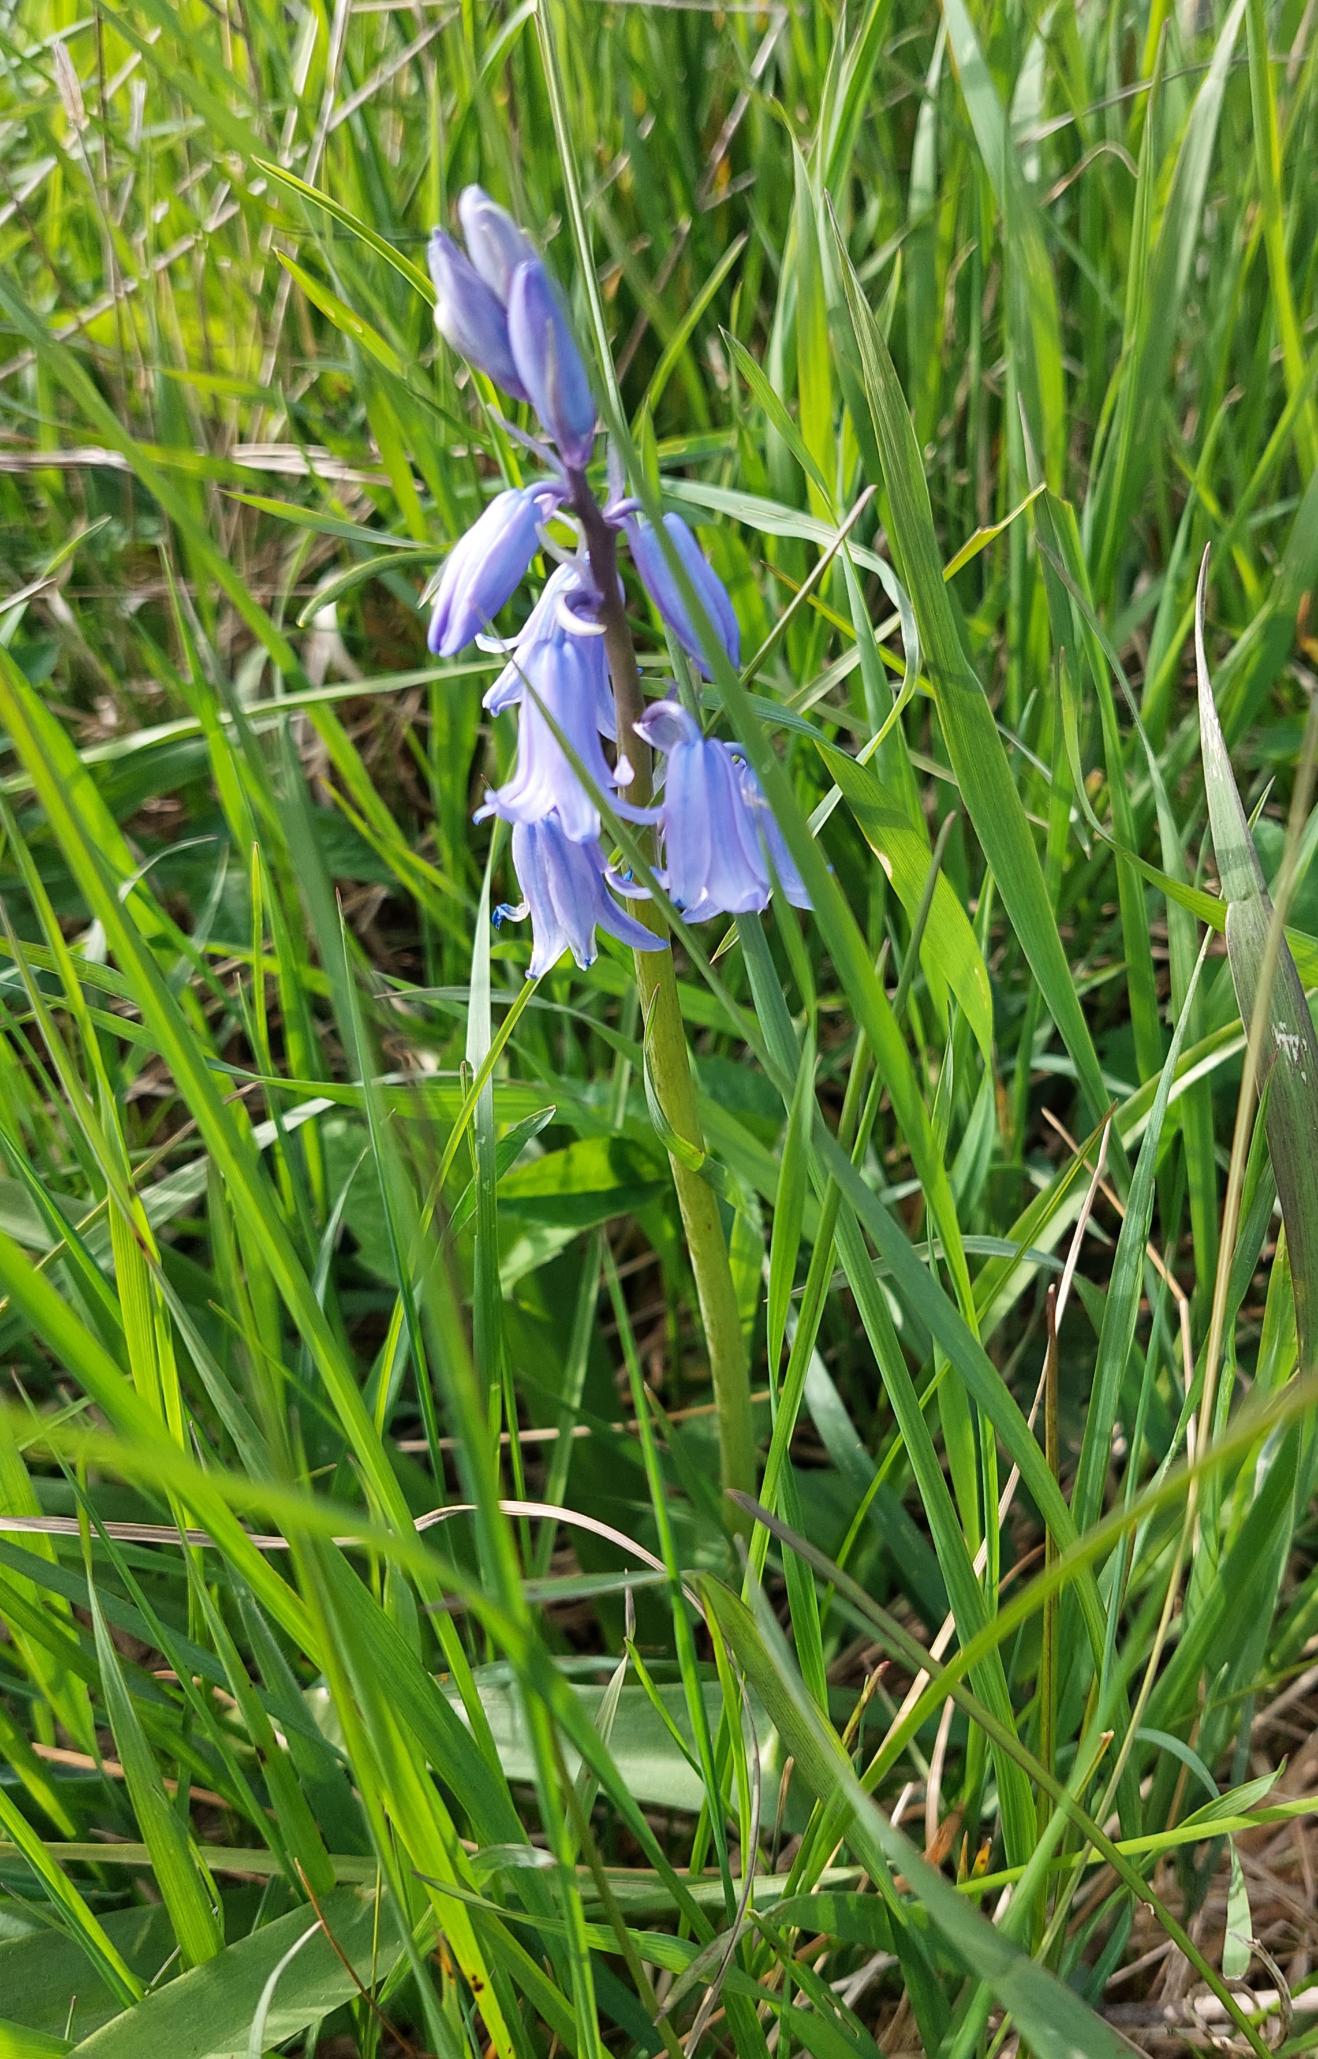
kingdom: Plantae
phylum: Tracheophyta
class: Liliopsida
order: Asparagales
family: Asparagaceae
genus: Hyacinthoides
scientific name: Hyacinthoides massartiana
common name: Hybrid-klokkeskilla
